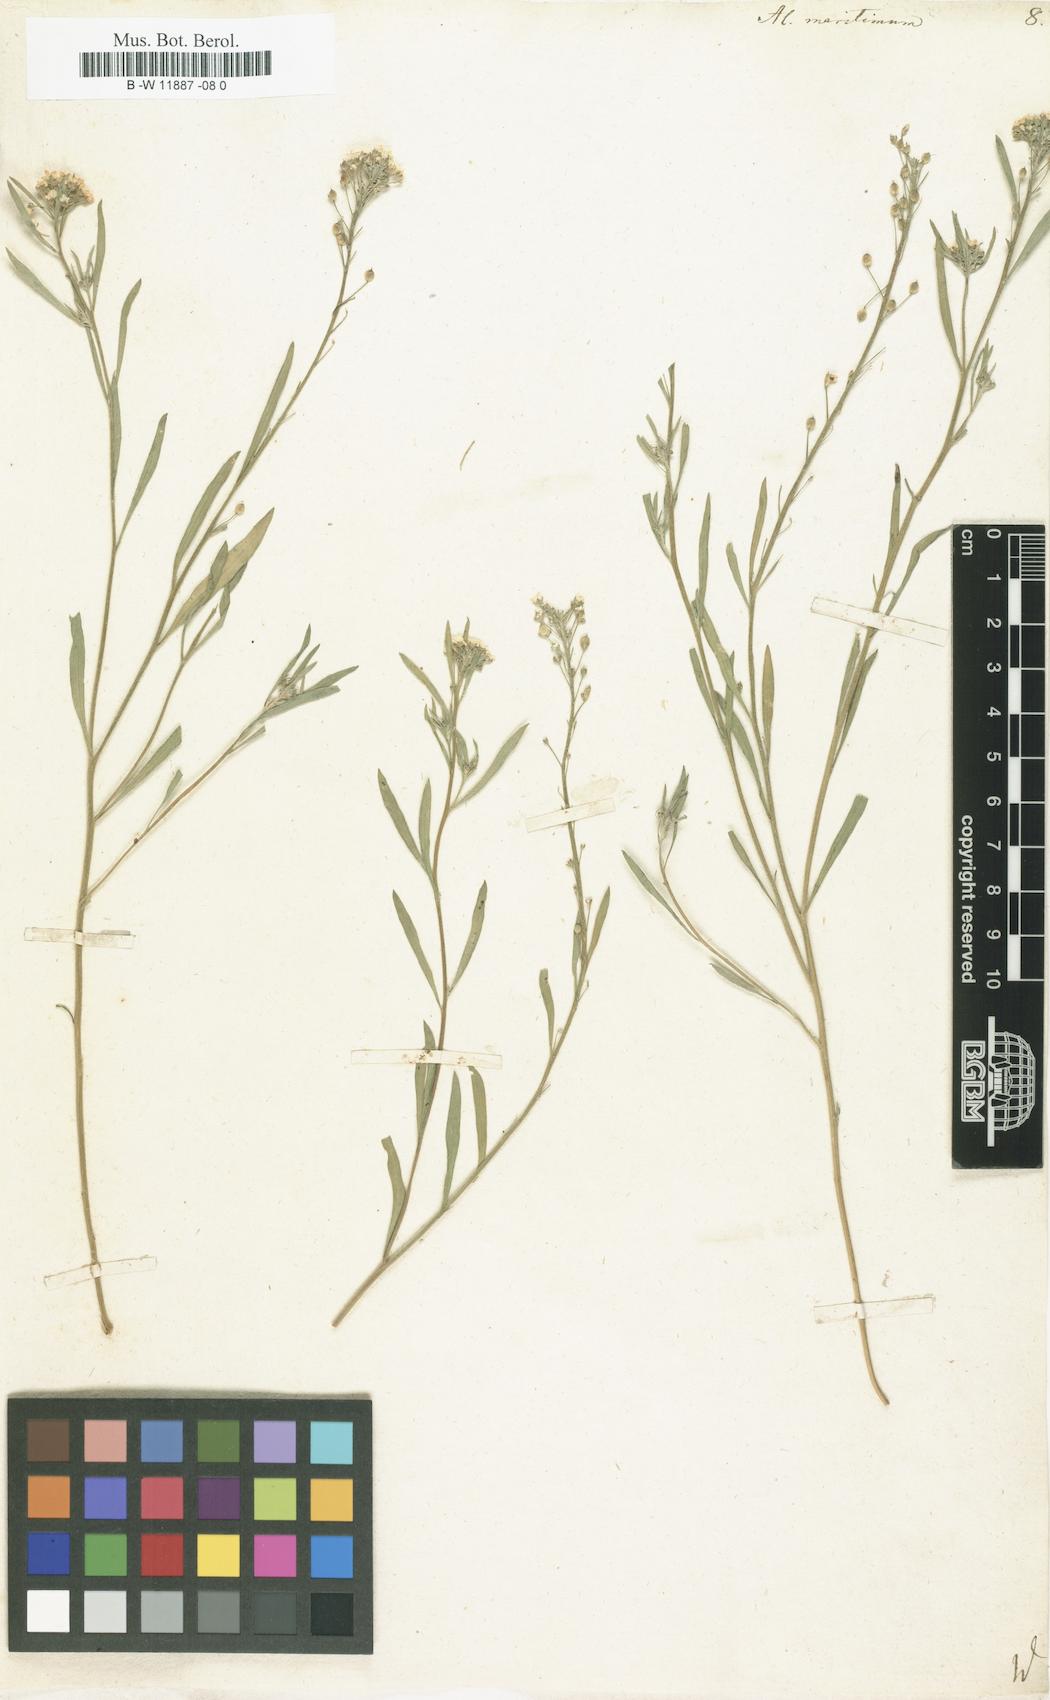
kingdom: Plantae
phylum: Tracheophyta
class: Magnoliopsida
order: Brassicales
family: Brassicaceae
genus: Lobularia
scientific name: Lobularia maritima
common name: Sweet alison
